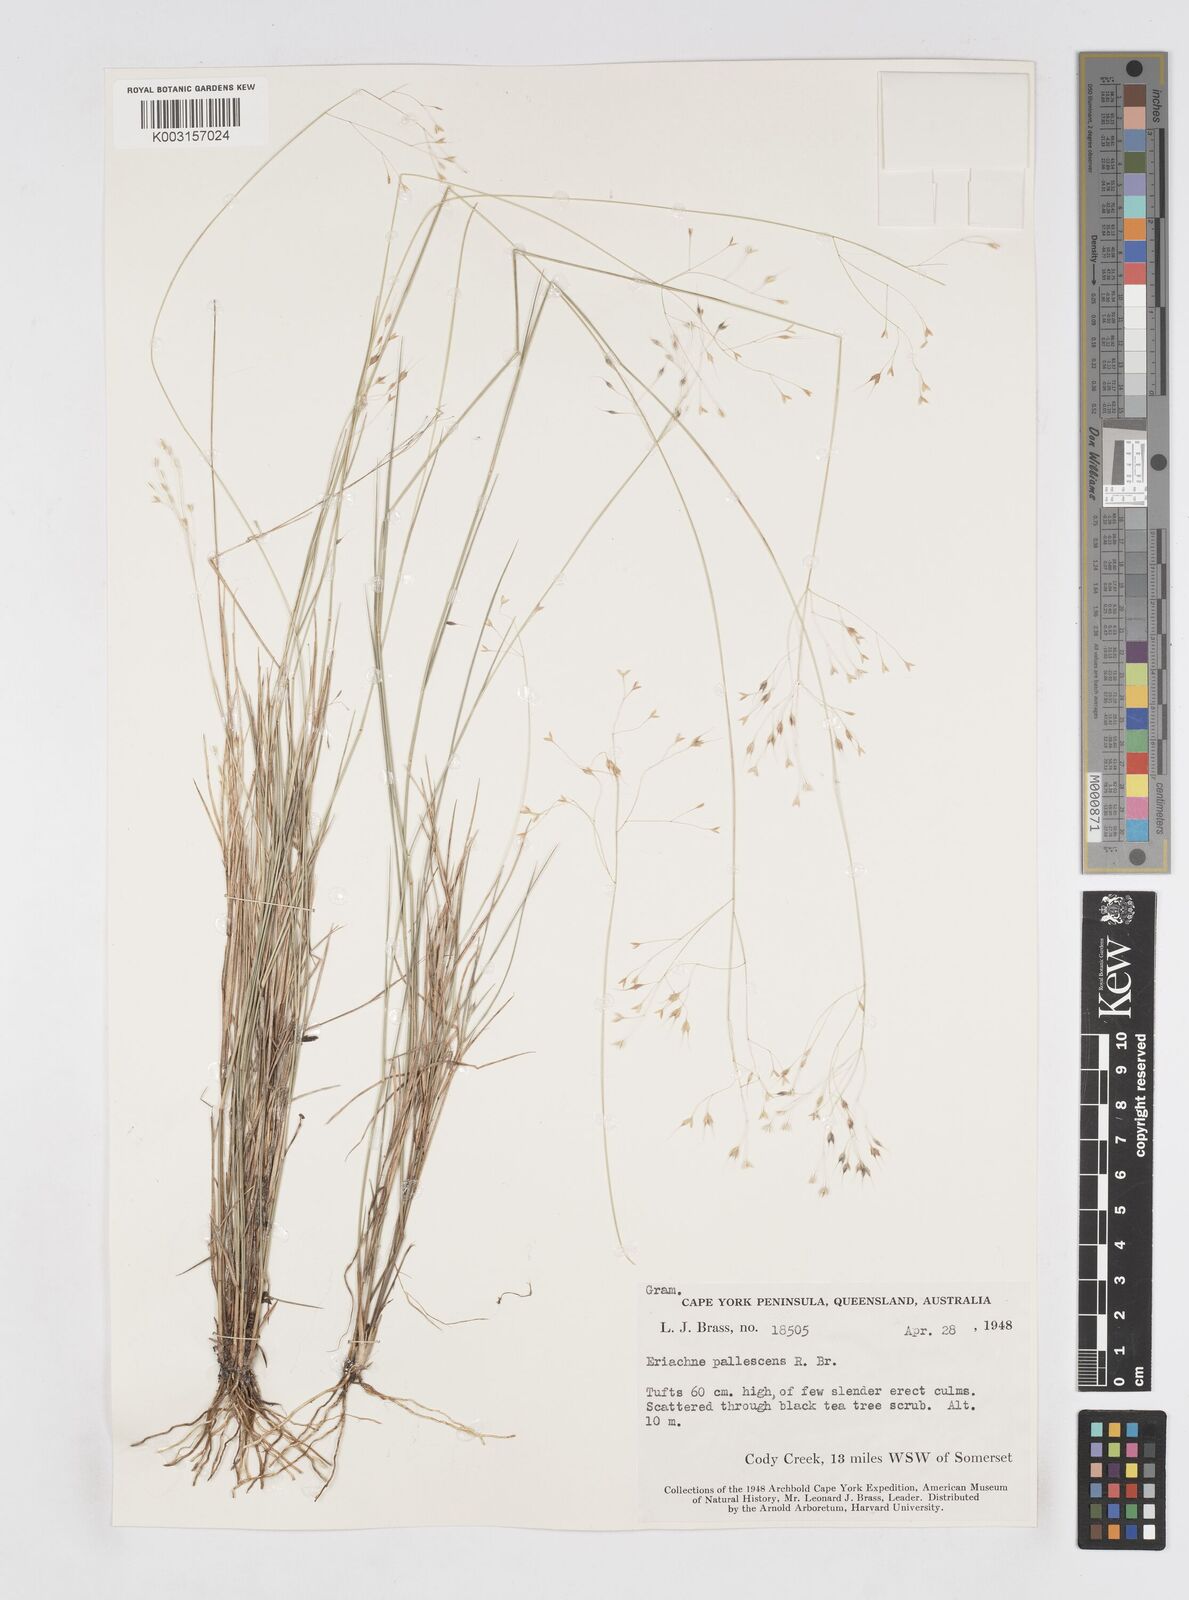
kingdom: Plantae
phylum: Tracheophyta
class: Liliopsida
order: Poales
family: Poaceae
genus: Eriachne
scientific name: Eriachne pallescens
